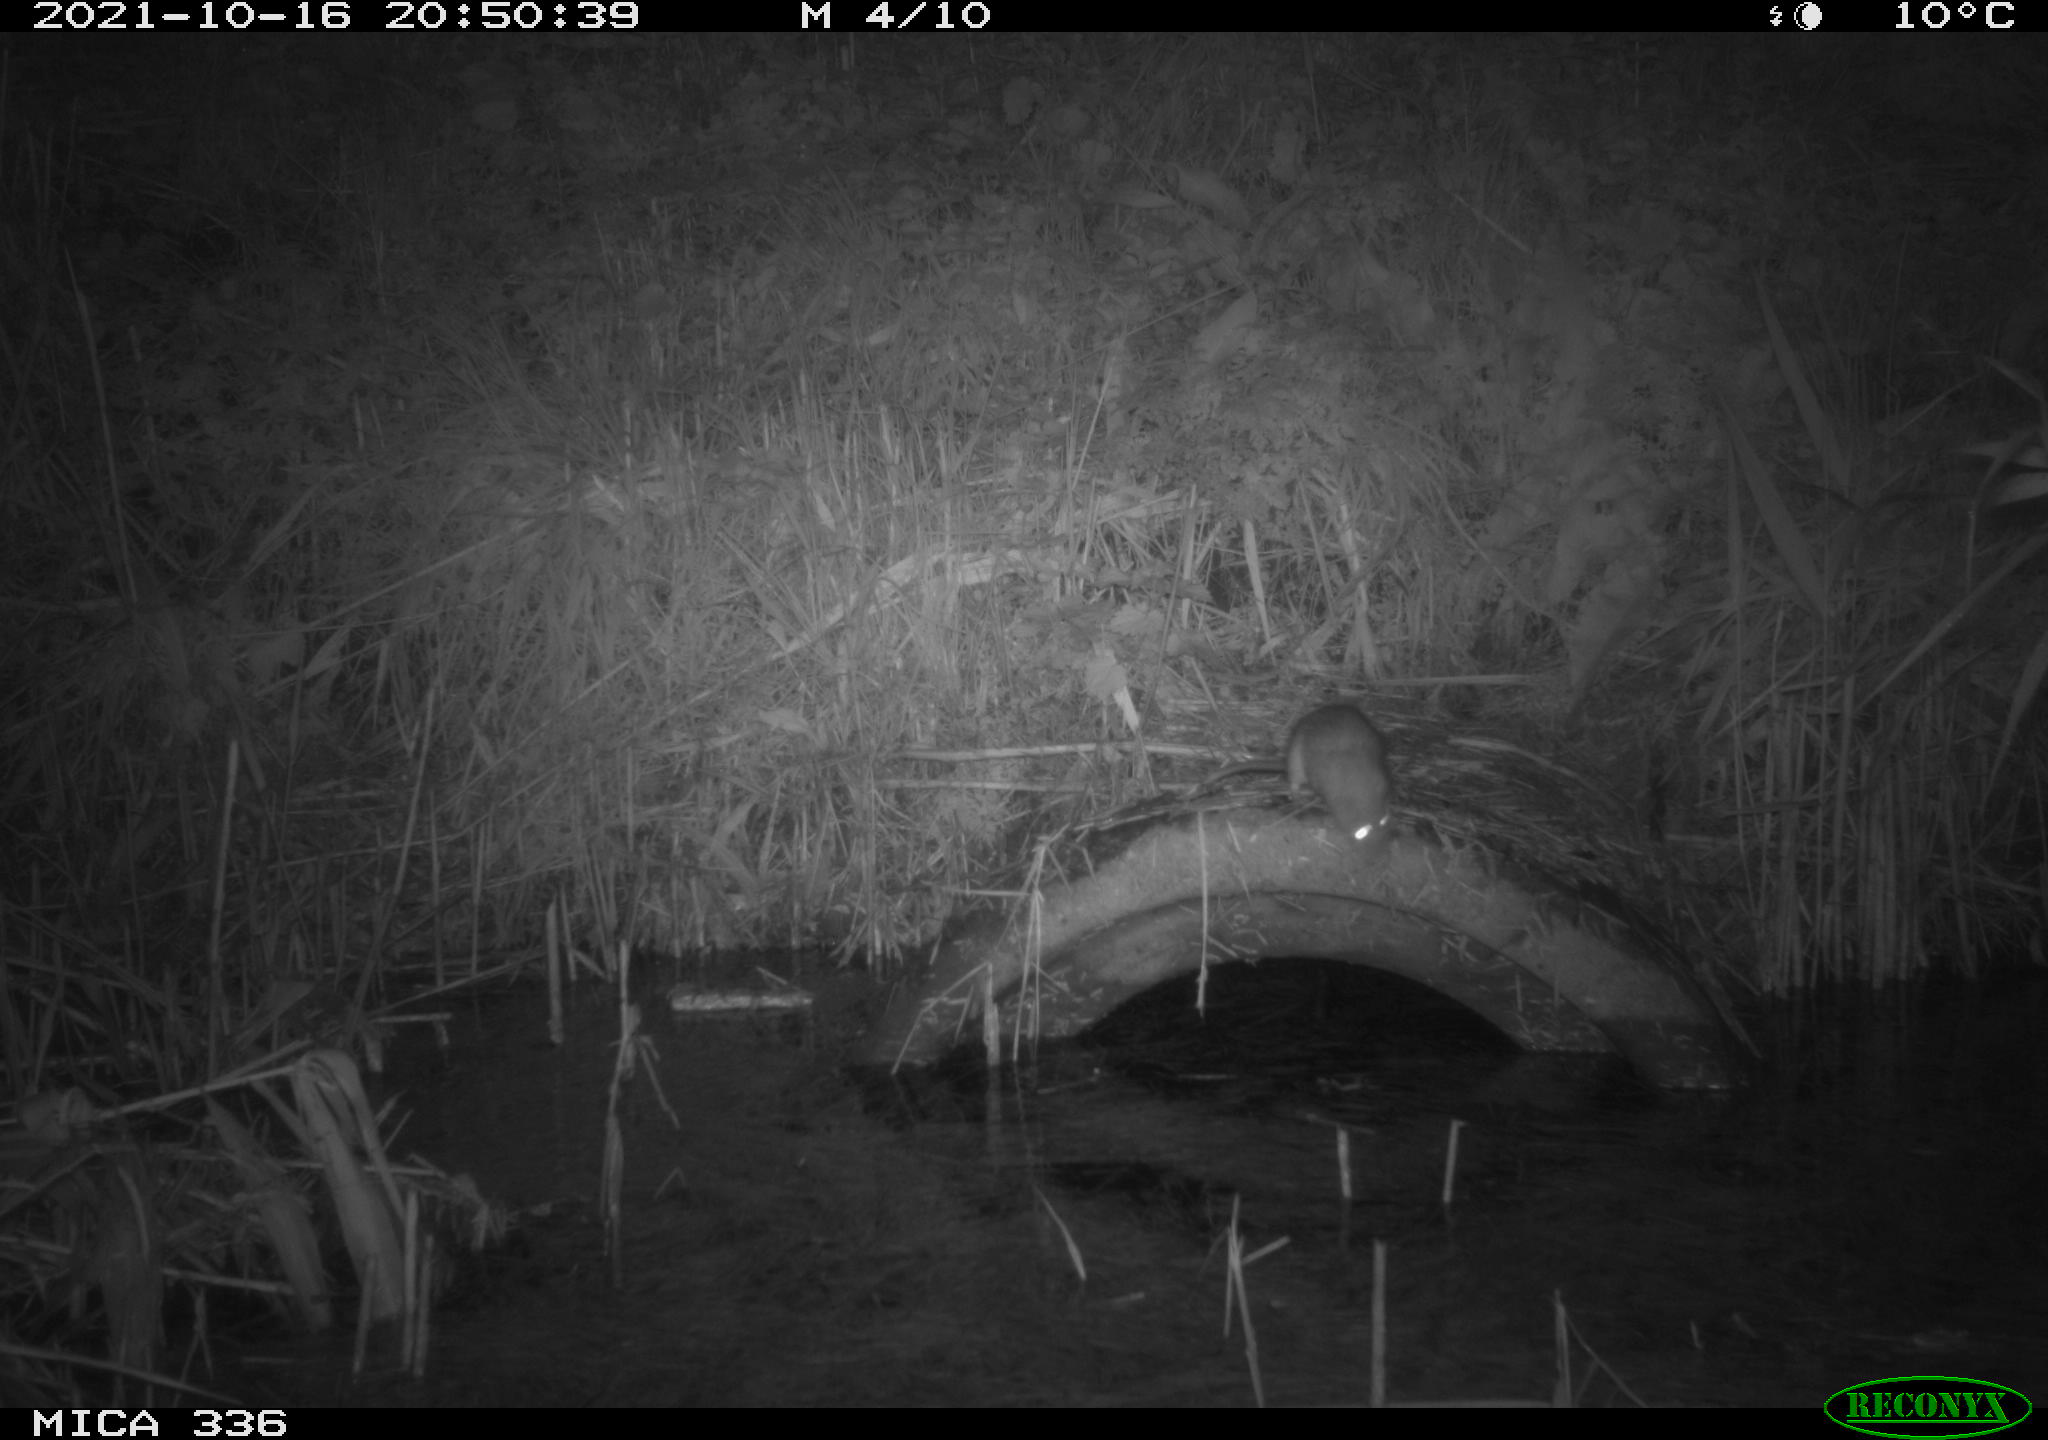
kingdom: Animalia
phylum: Chordata
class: Mammalia
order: Rodentia
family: Muridae
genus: Rattus
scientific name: Rattus norvegicus
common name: Brown rat
